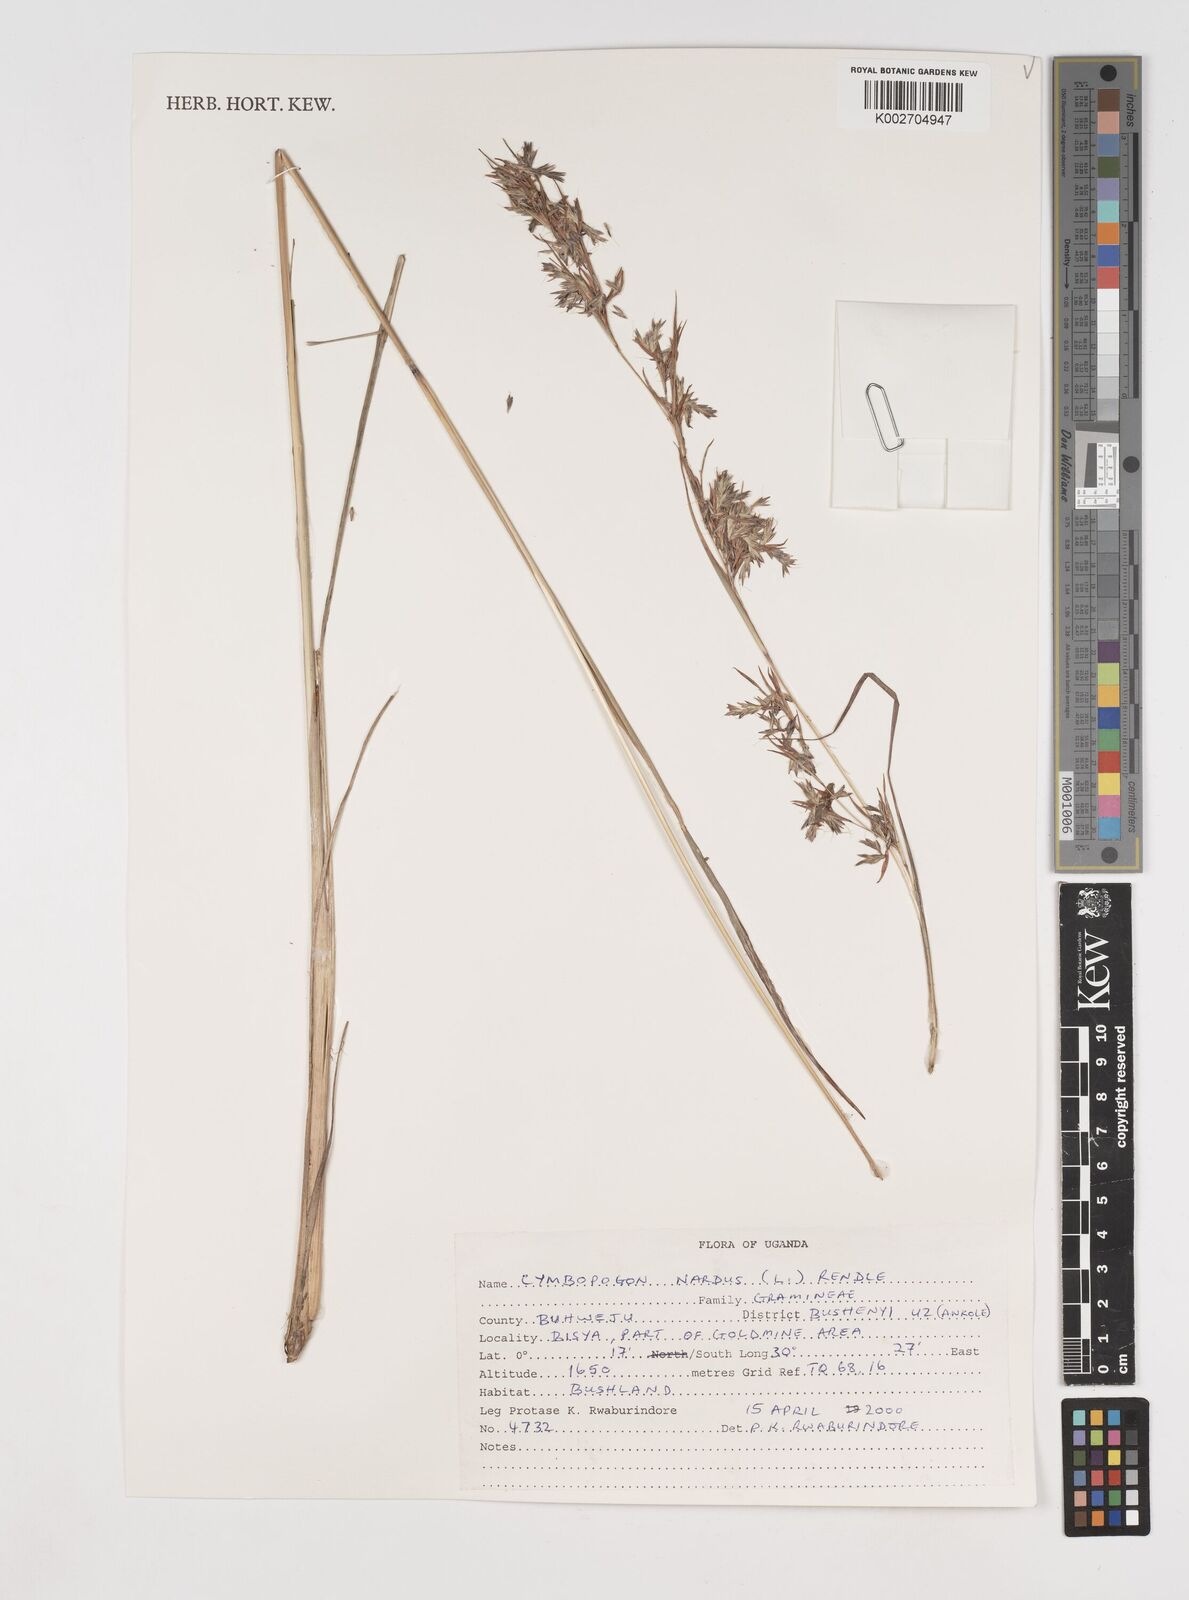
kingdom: Plantae
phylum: Tracheophyta
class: Liliopsida
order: Poales
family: Poaceae
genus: Cymbopogon
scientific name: Cymbopogon nardus
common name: Giant turpentine grass
